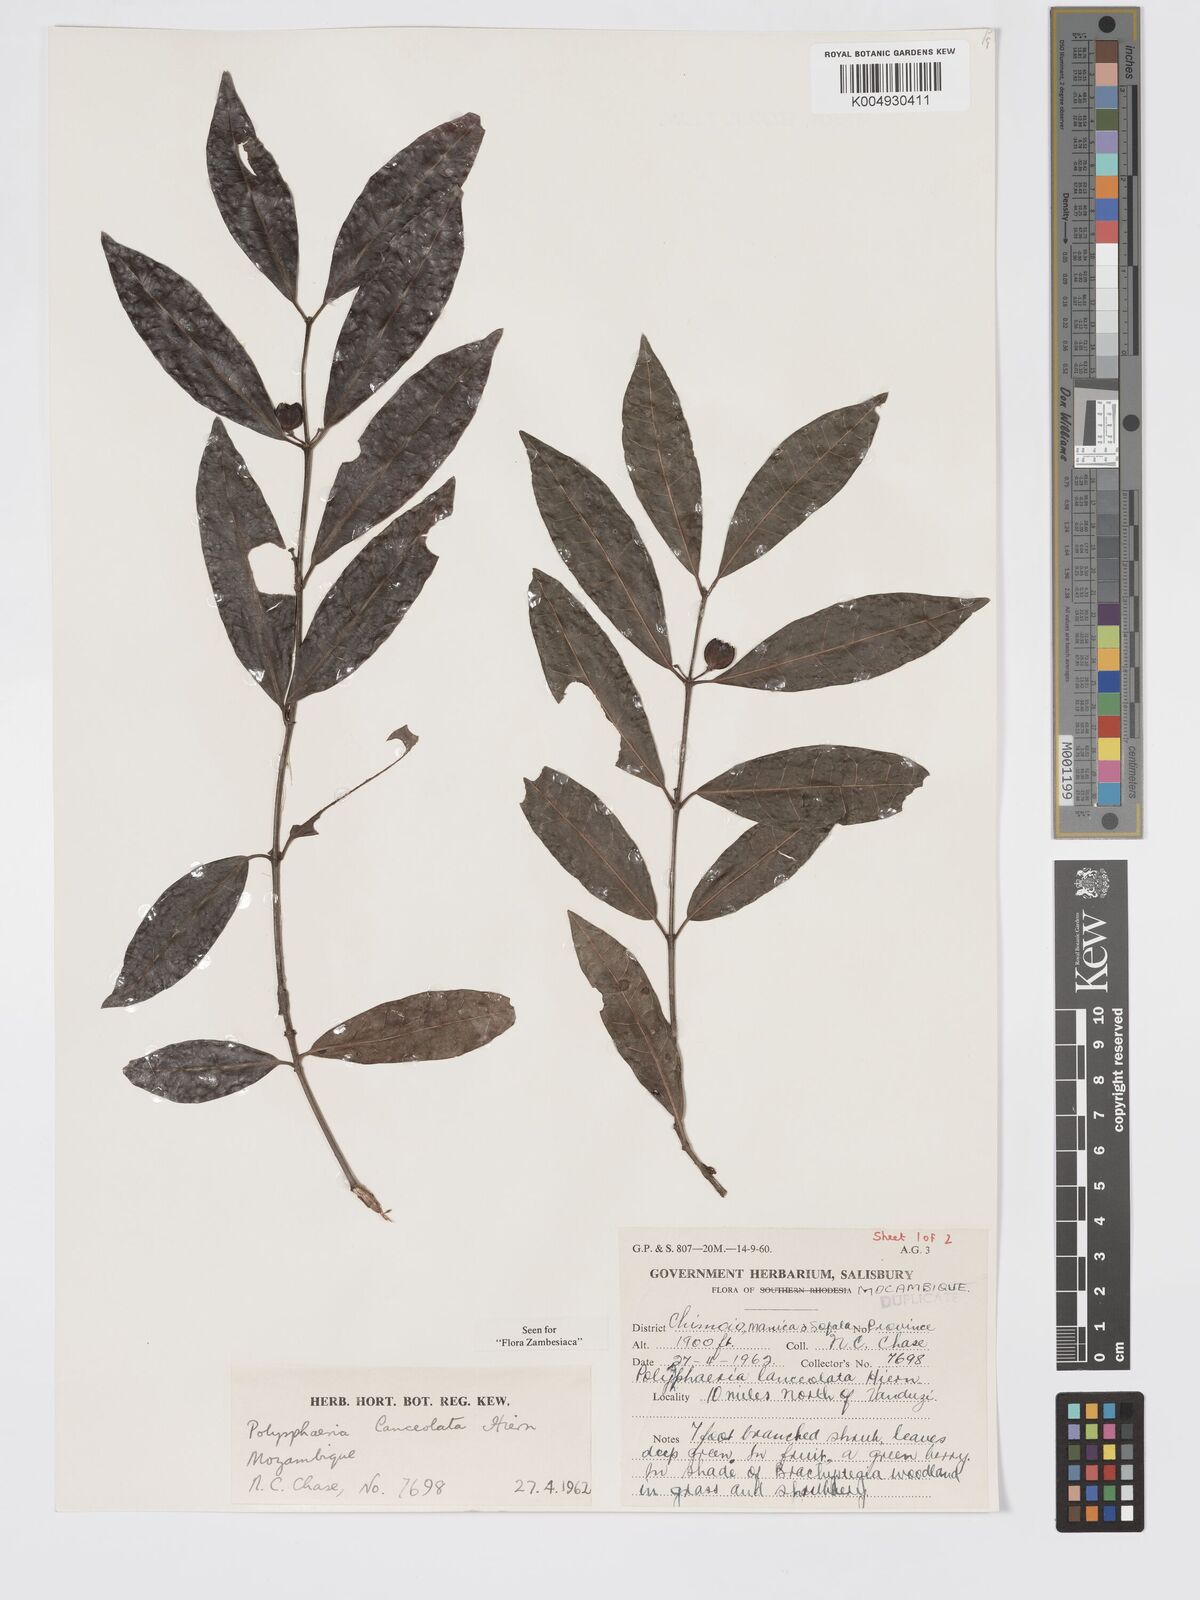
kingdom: Plantae
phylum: Tracheophyta
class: Magnoliopsida
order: Gentianales
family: Rubiaceae
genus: Polysphaeria
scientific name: Polysphaeria lanceolata
